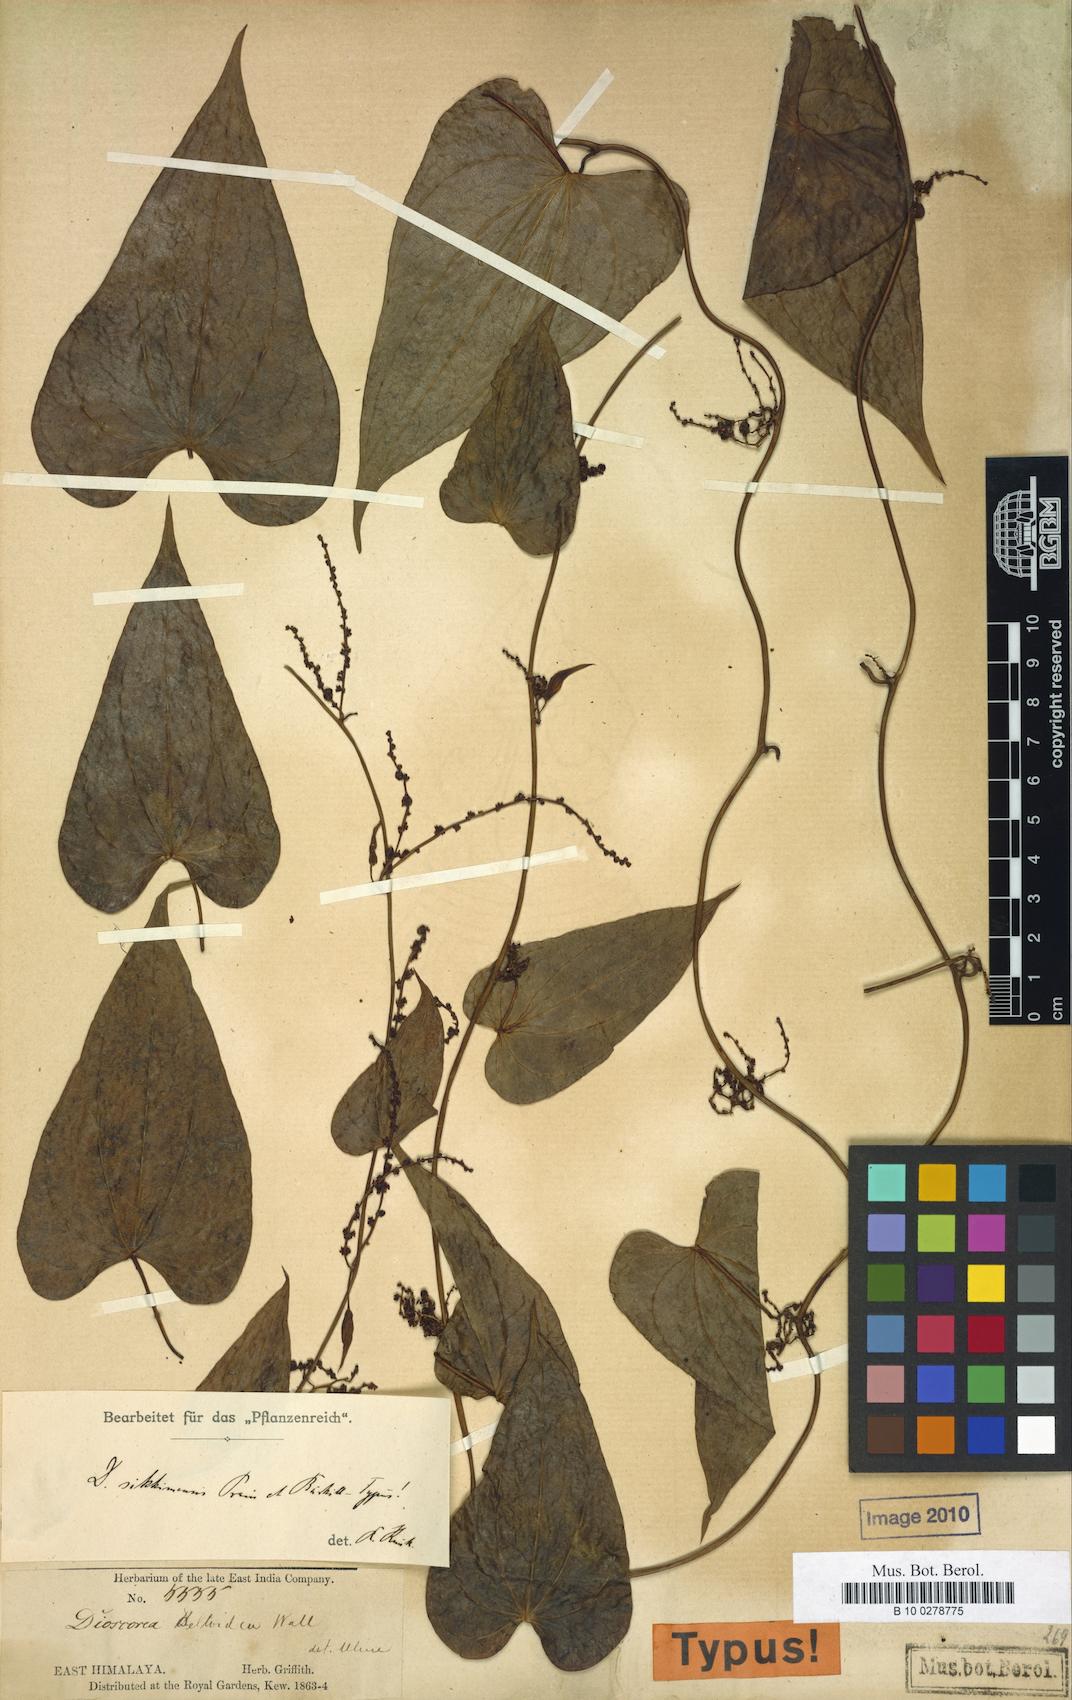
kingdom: Plantae
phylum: Tracheophyta
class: Liliopsida
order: Dioscoreales
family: Dioscoreaceae
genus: Dioscorea
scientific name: Dioscorea prazeri
